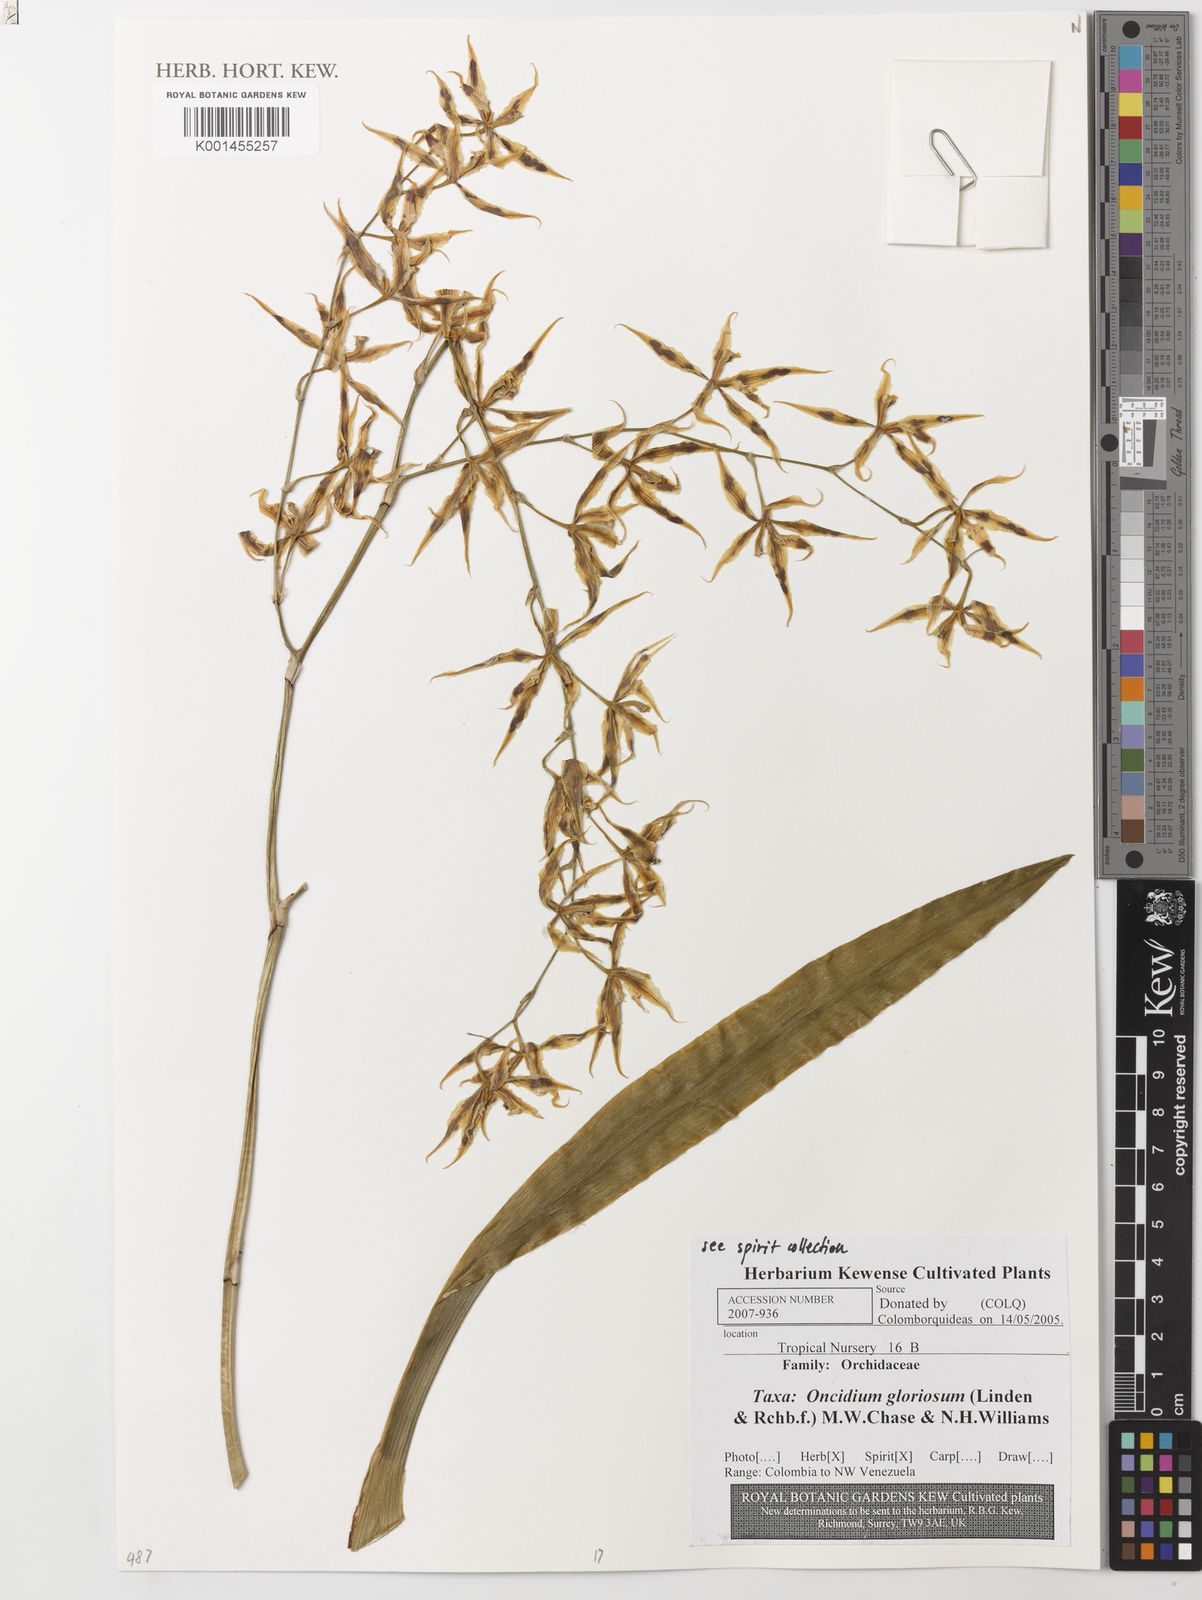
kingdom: Plantae
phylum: Tracheophyta
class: Liliopsida
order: Asparagales
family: Orchidaceae
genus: Oncidium
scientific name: Oncidium gloriosum
